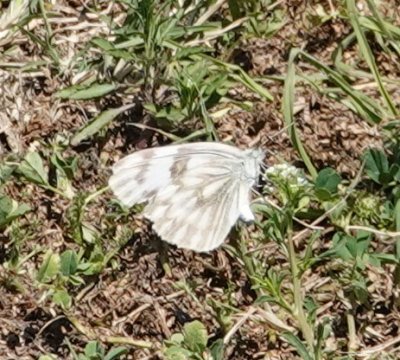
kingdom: Animalia
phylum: Arthropoda
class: Insecta
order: Lepidoptera
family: Pieridae
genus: Pontia
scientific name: Pontia protodice
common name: Checkered White
